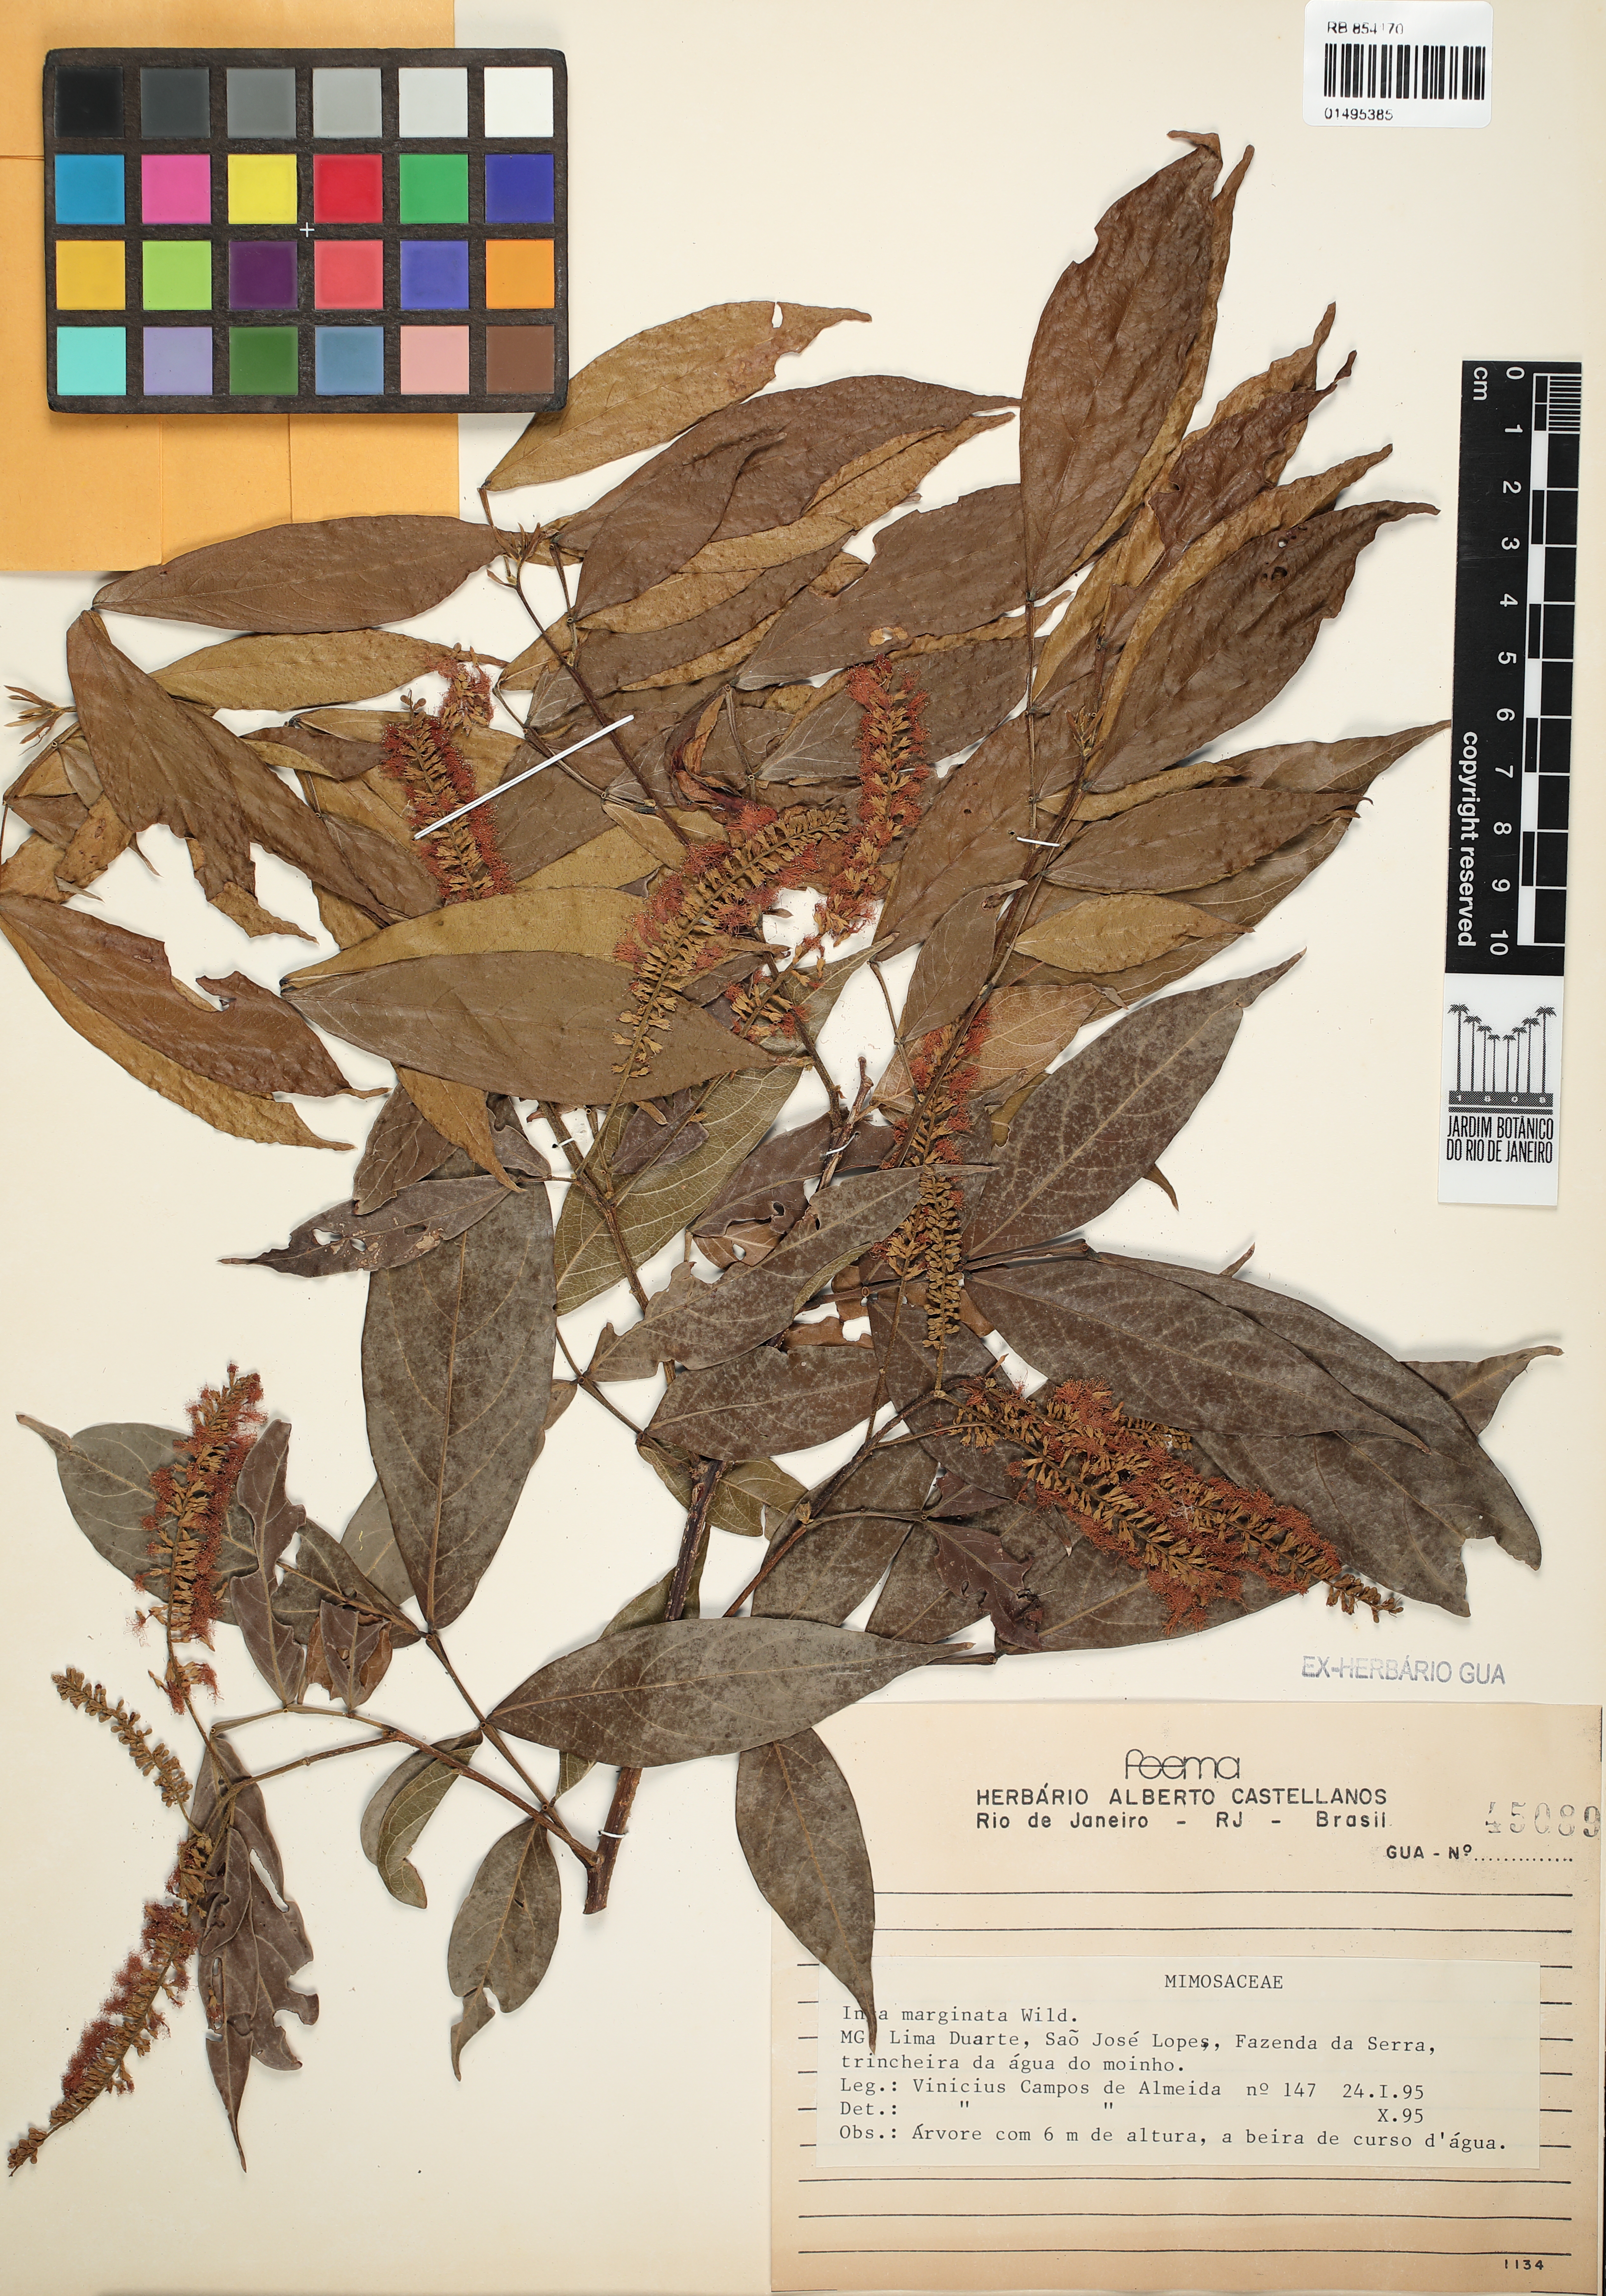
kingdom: Plantae
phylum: Tracheophyta
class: Magnoliopsida
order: Fabales
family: Fabaceae
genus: Inga
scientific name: Inga marginata
